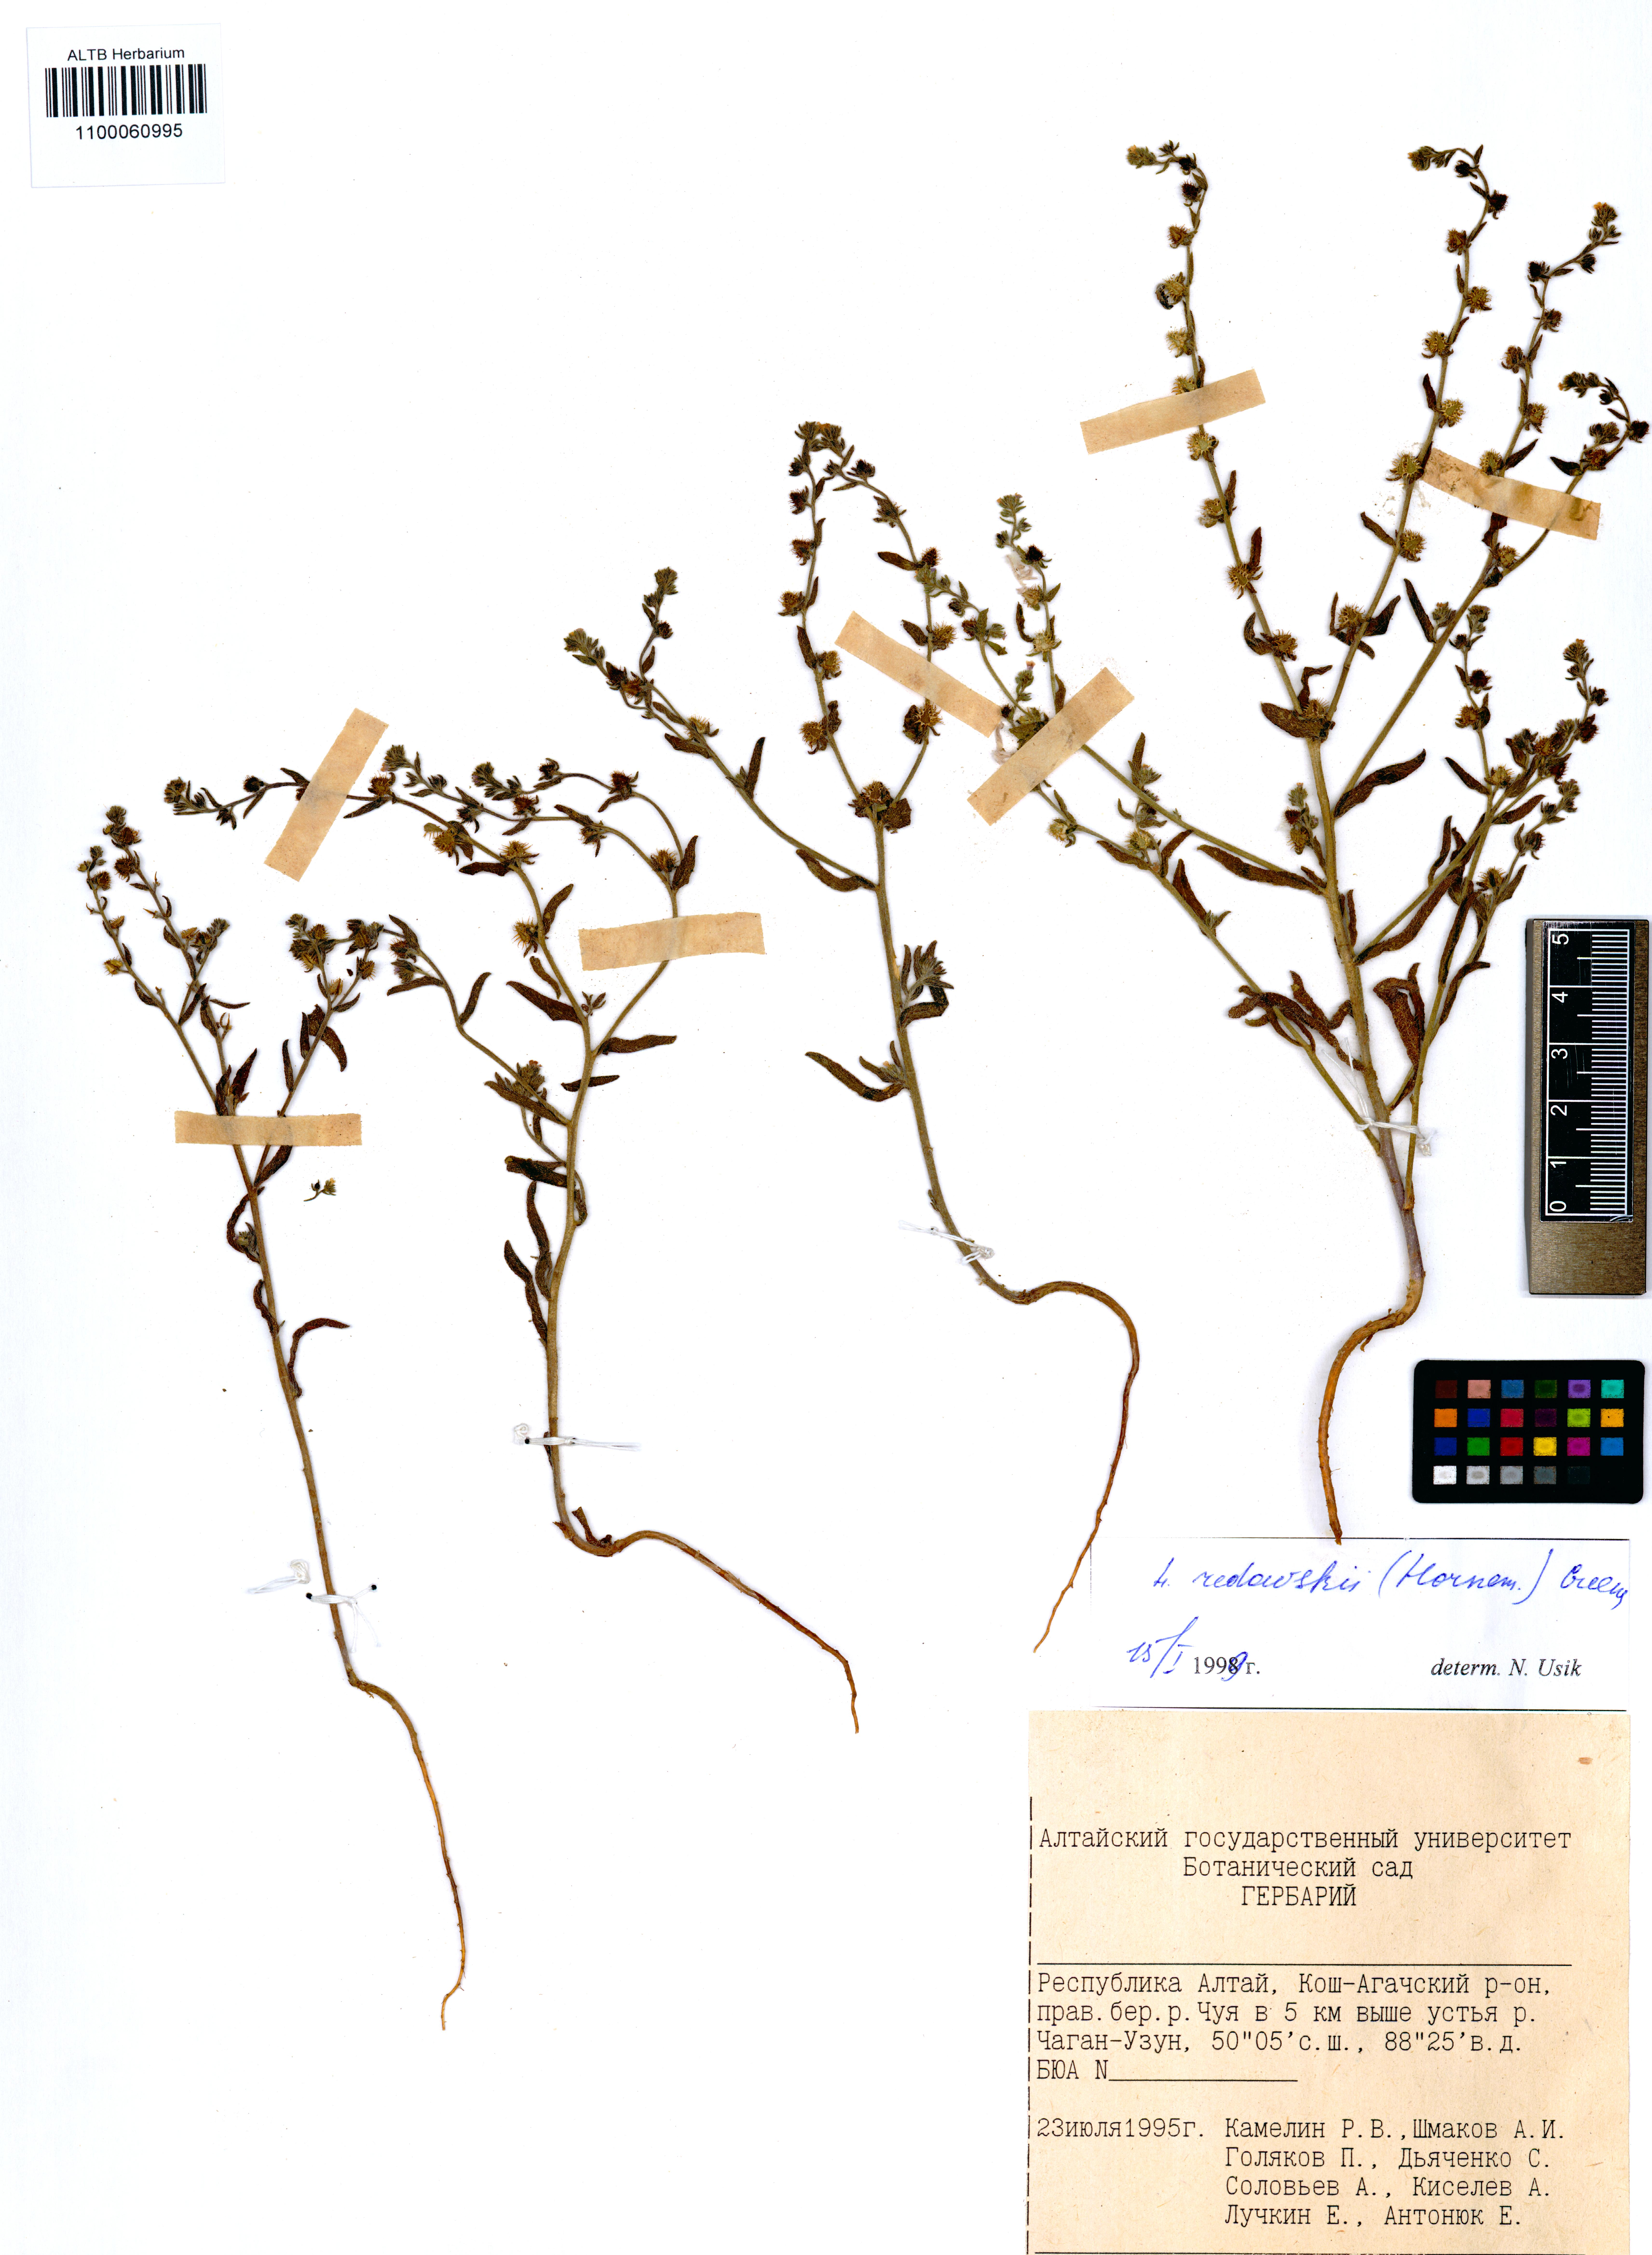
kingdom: Plantae
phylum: Tracheophyta
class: Magnoliopsida
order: Boraginales
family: Boraginaceae
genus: Lappula
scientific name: Lappula redowskii
